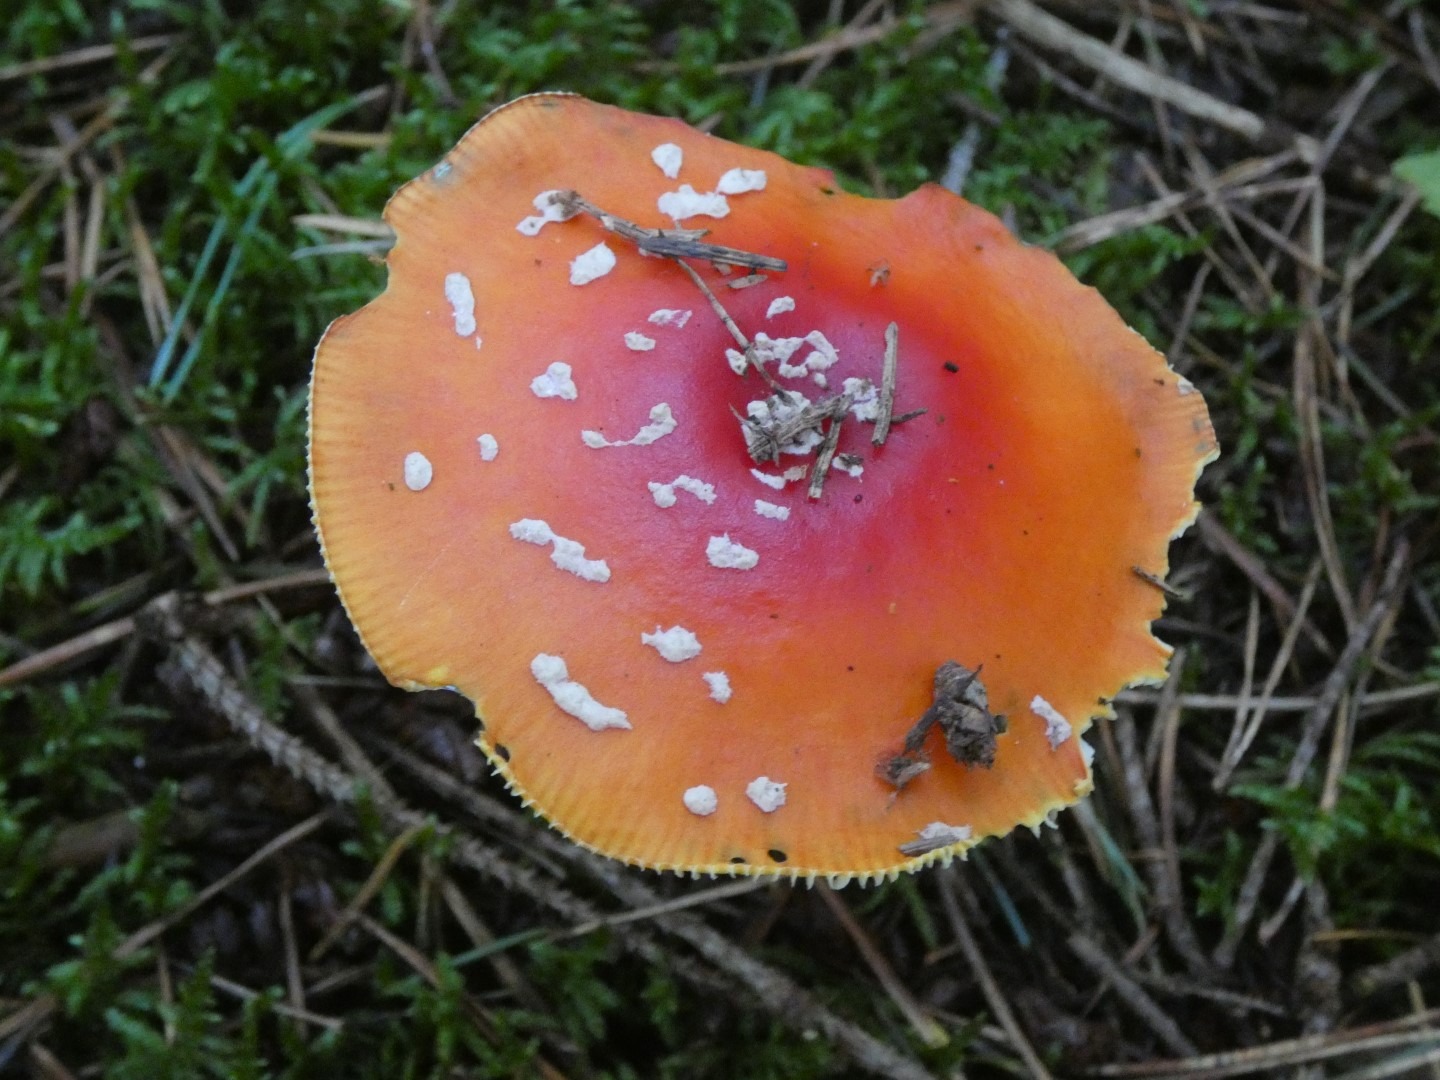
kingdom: Fungi
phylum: Basidiomycota
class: Agaricomycetes
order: Agaricales
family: Amanitaceae
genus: Amanita
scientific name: Amanita muscaria
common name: Rød fluesvamp
